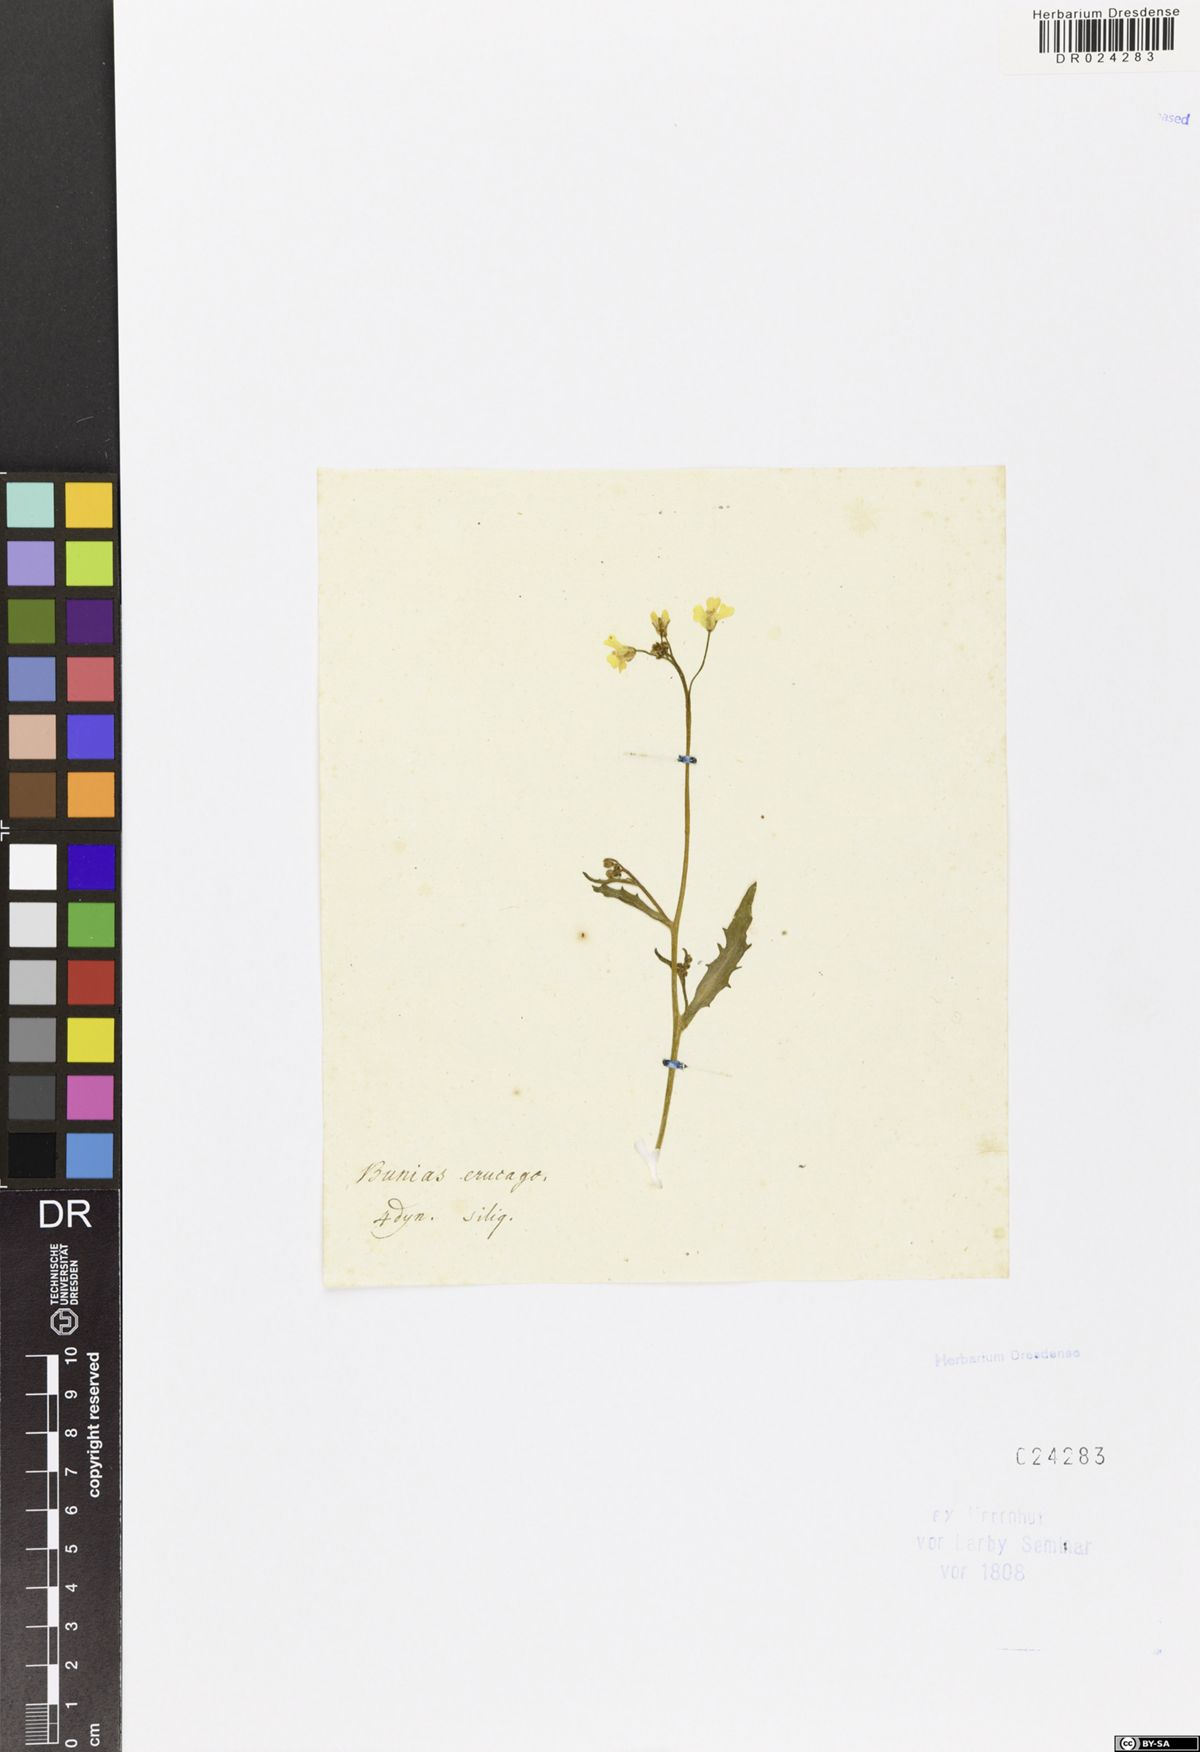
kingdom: Plantae
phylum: Tracheophyta
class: Magnoliopsida
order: Brassicales
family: Brassicaceae
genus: Bunias
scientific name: Bunias erucago
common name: Southern warty-cabbage
